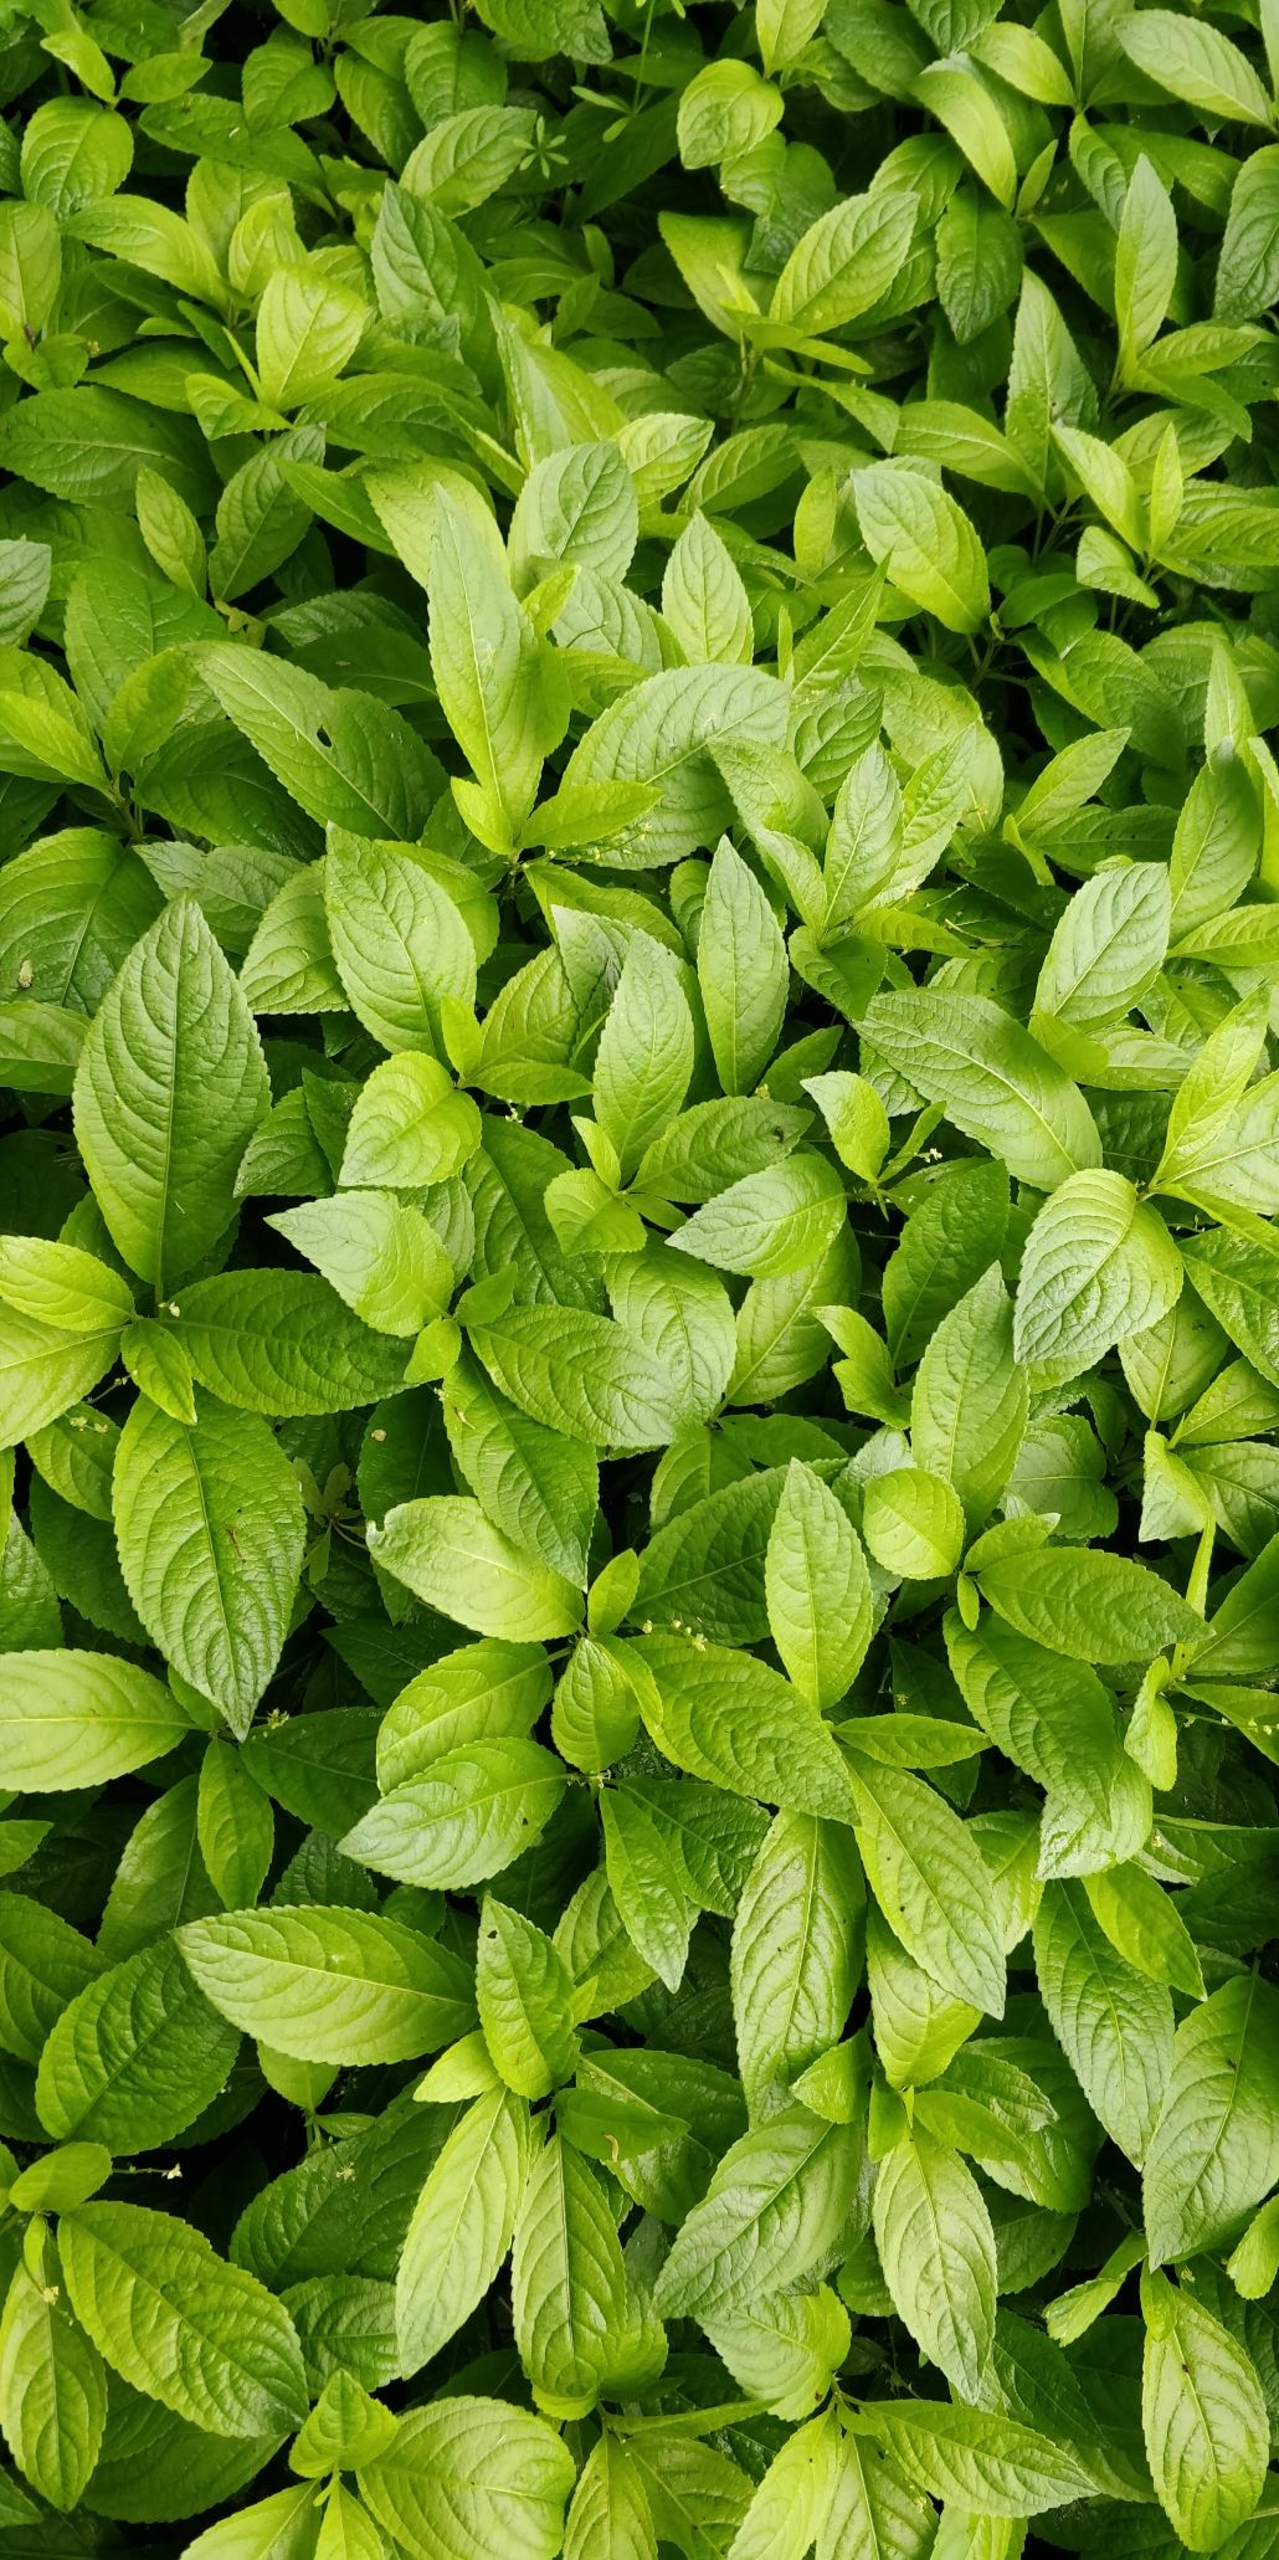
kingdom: Plantae
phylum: Tracheophyta
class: Magnoliopsida
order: Malpighiales
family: Euphorbiaceae
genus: Mercurialis
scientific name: Mercurialis perennis
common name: Almindelig bingelurt
